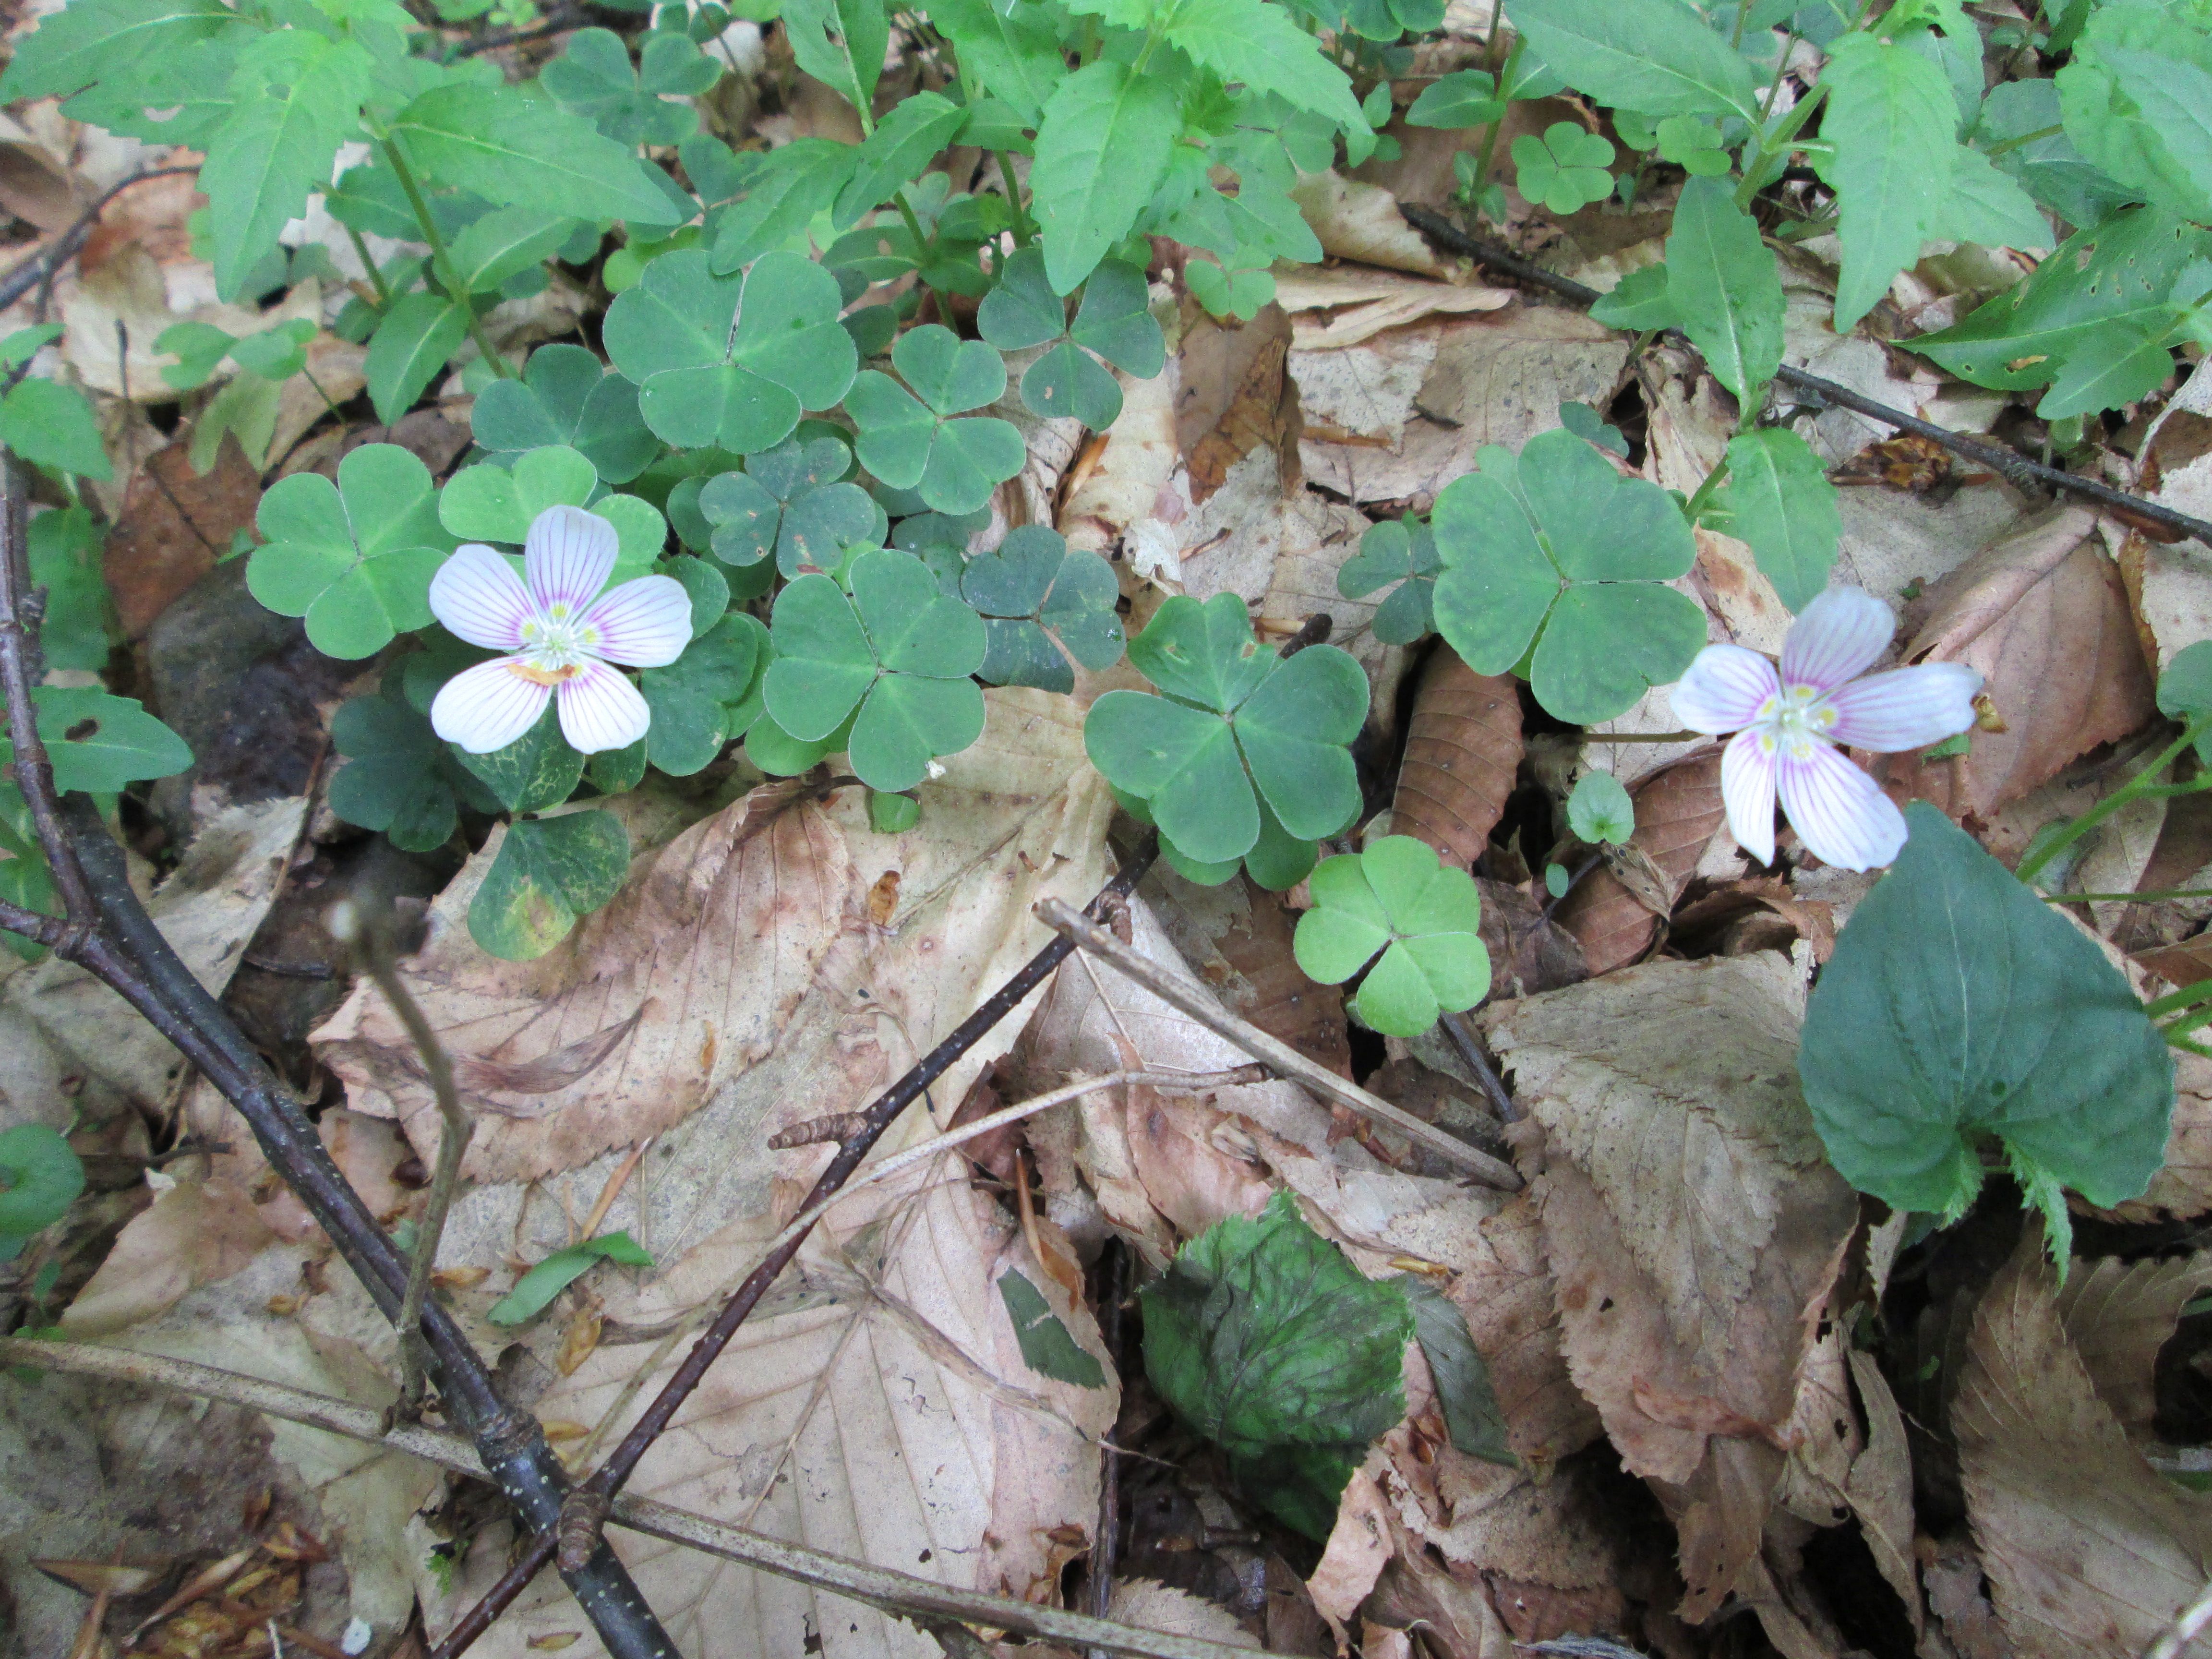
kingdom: Plantae
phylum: Tracheophyta
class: Magnoliopsida
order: Oxalidales
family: Oxalidaceae
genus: Oxalis
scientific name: Oxalis montana
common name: American wood-sorrel
